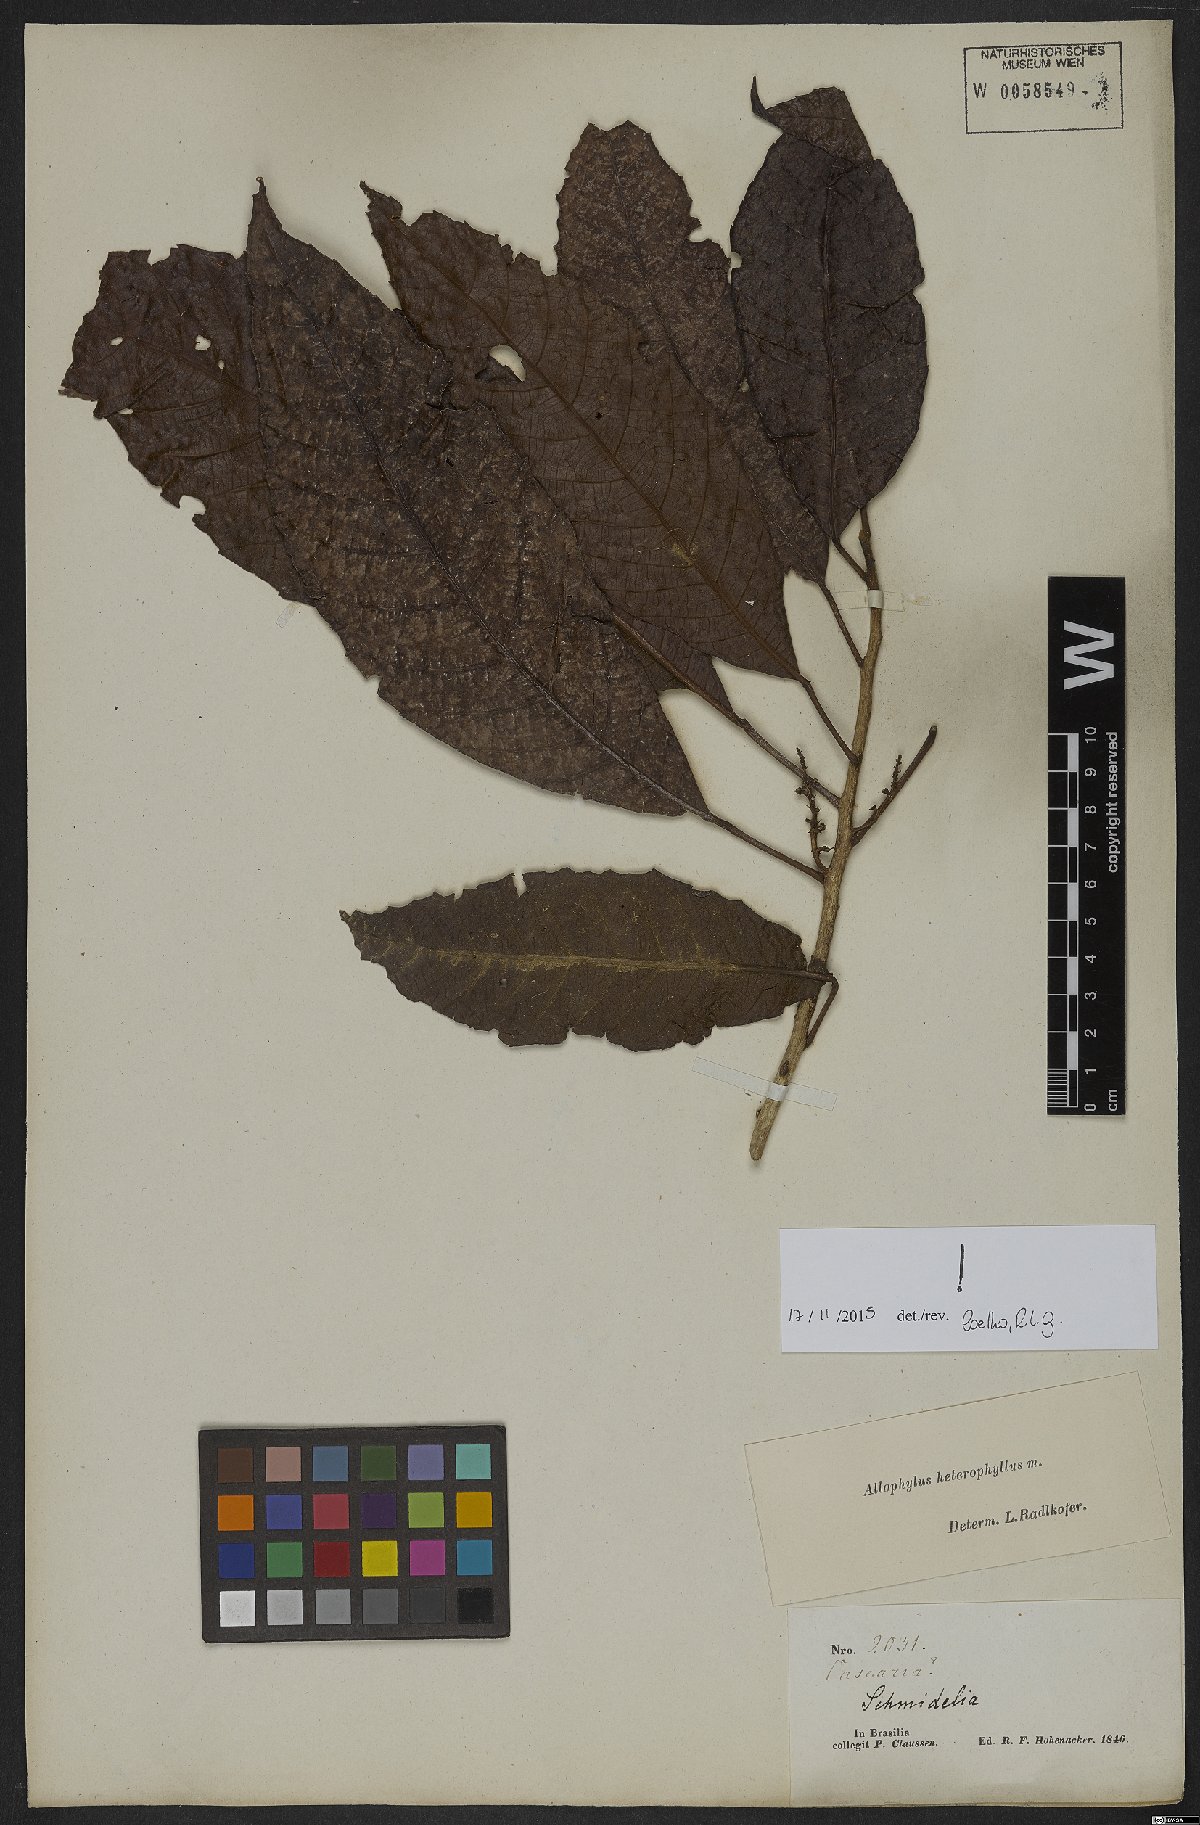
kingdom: Plantae
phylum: Tracheophyta
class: Magnoliopsida
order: Sapindales
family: Sapindaceae
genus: Allophylus
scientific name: Allophylus heterophyllus
